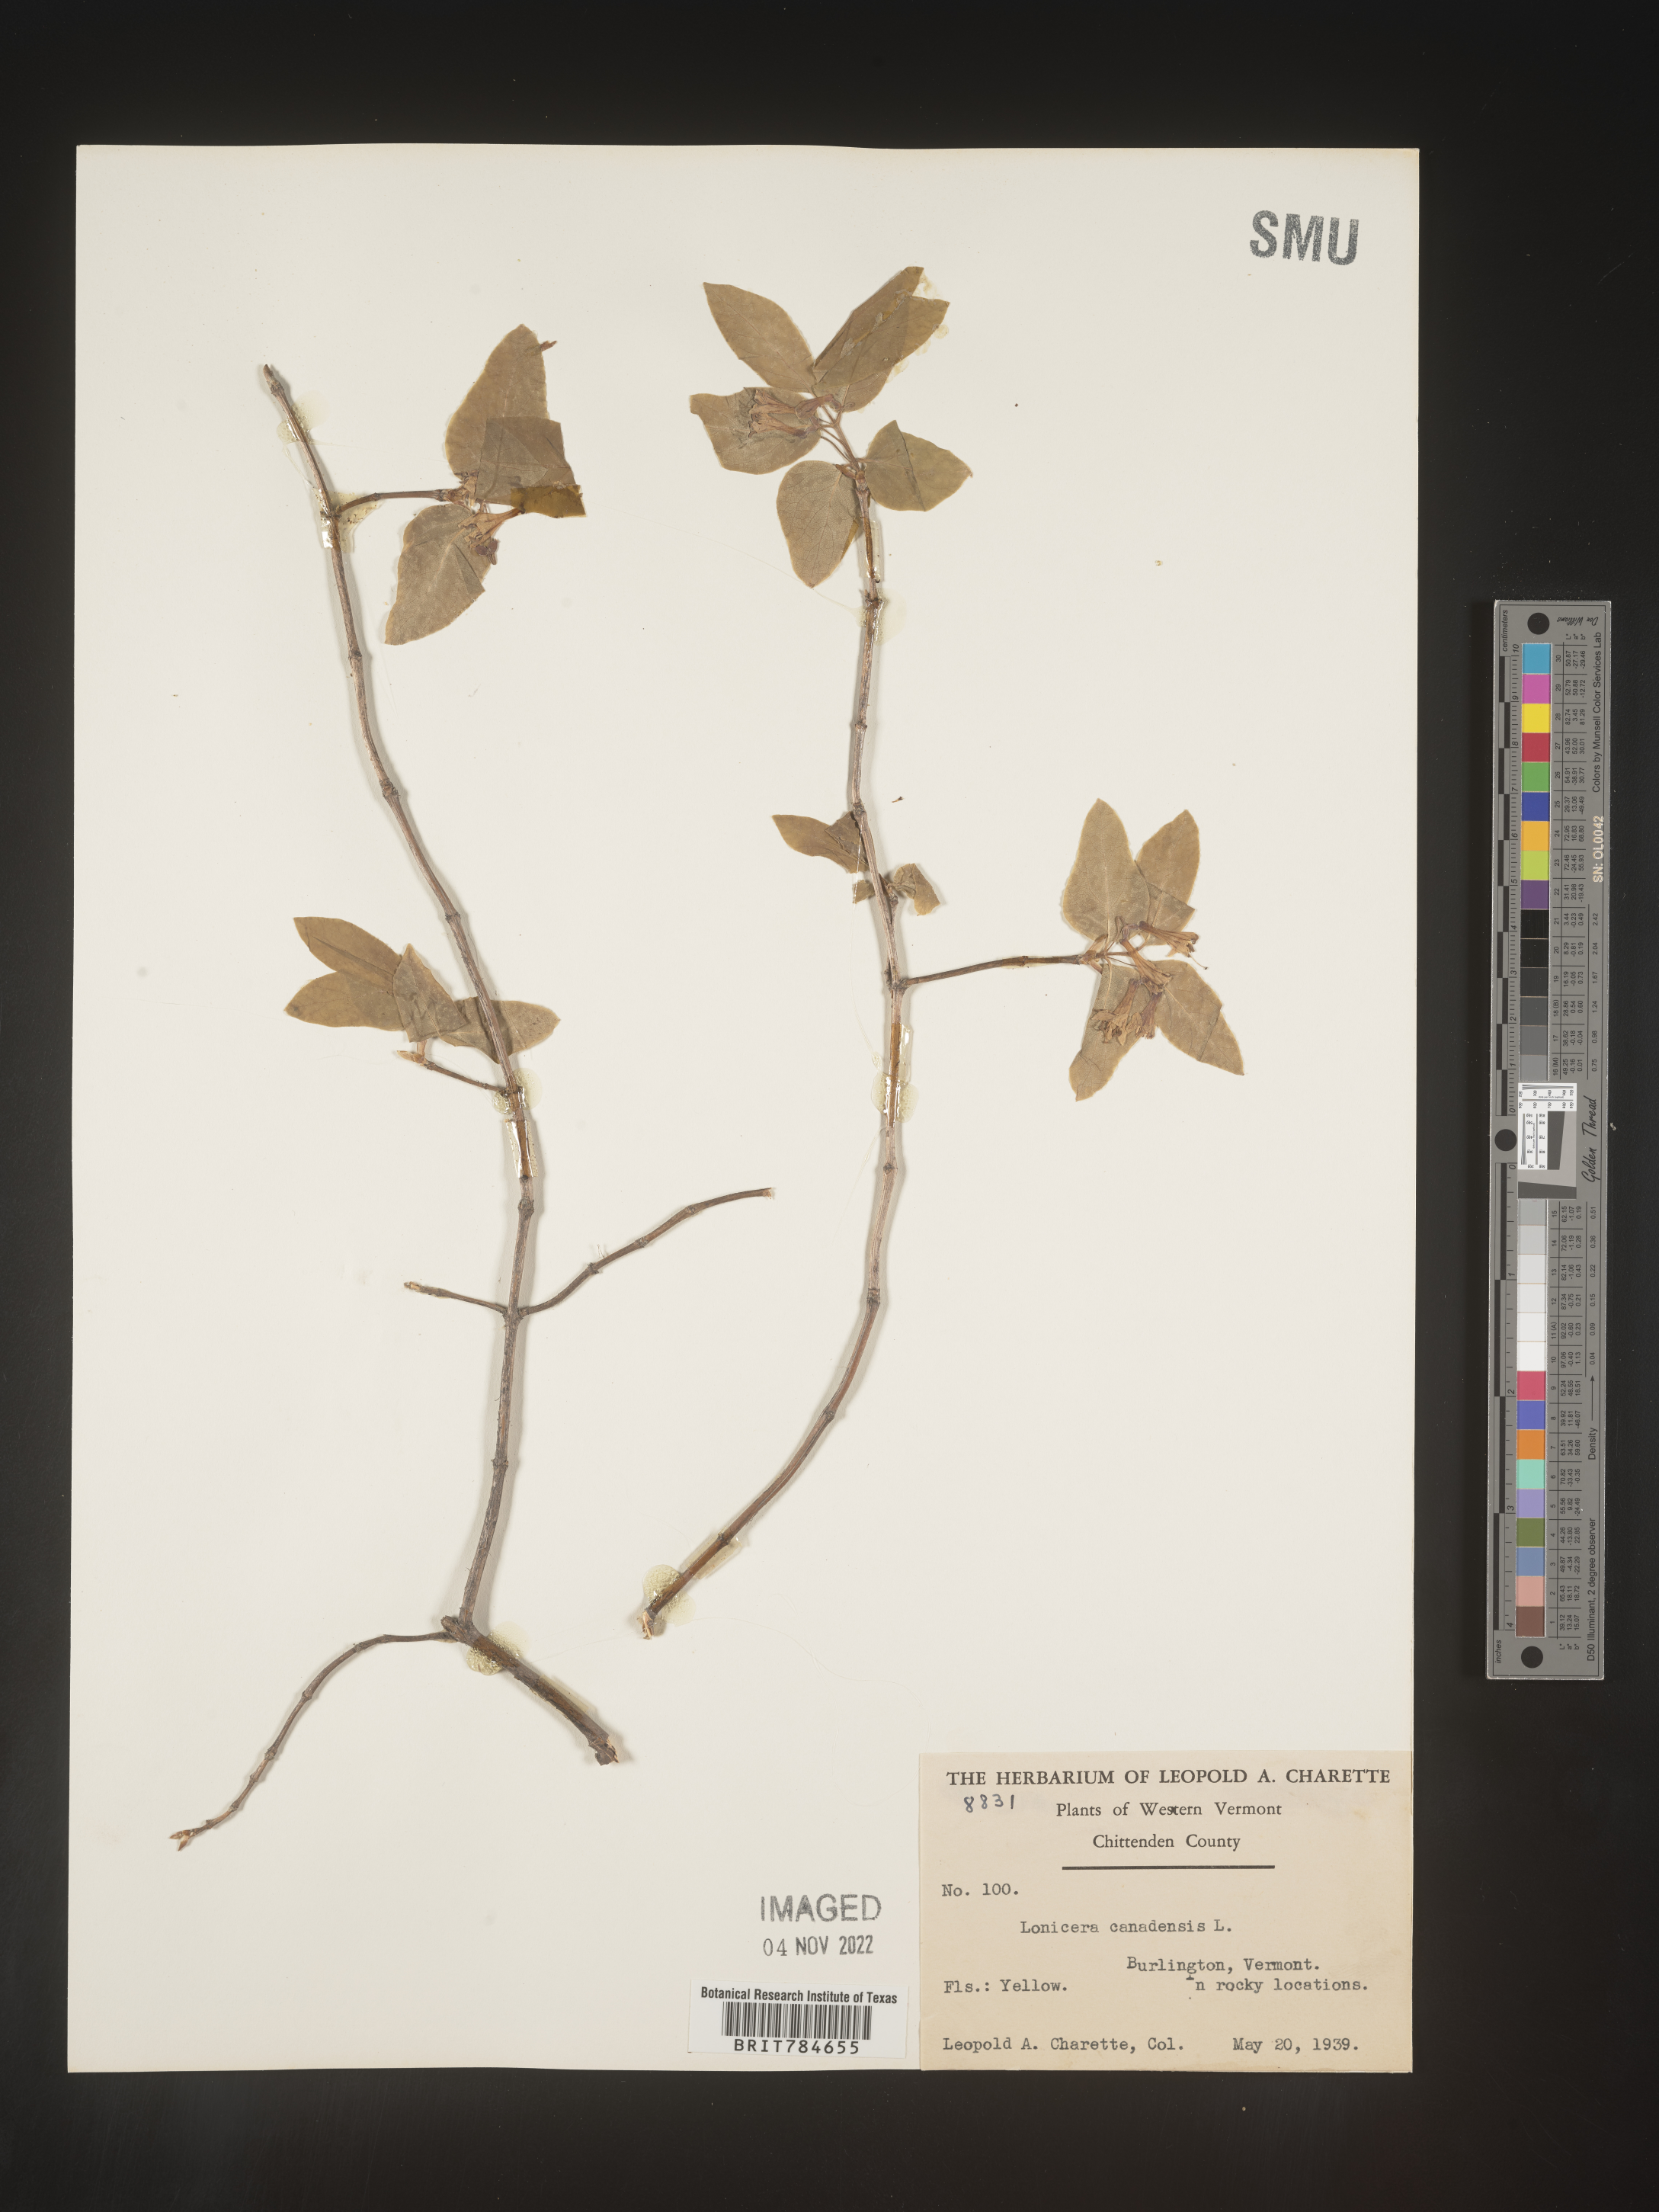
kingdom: Plantae
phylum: Tracheophyta
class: Magnoliopsida
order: Dipsacales
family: Caprifoliaceae
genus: Lonicera
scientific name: Lonicera
